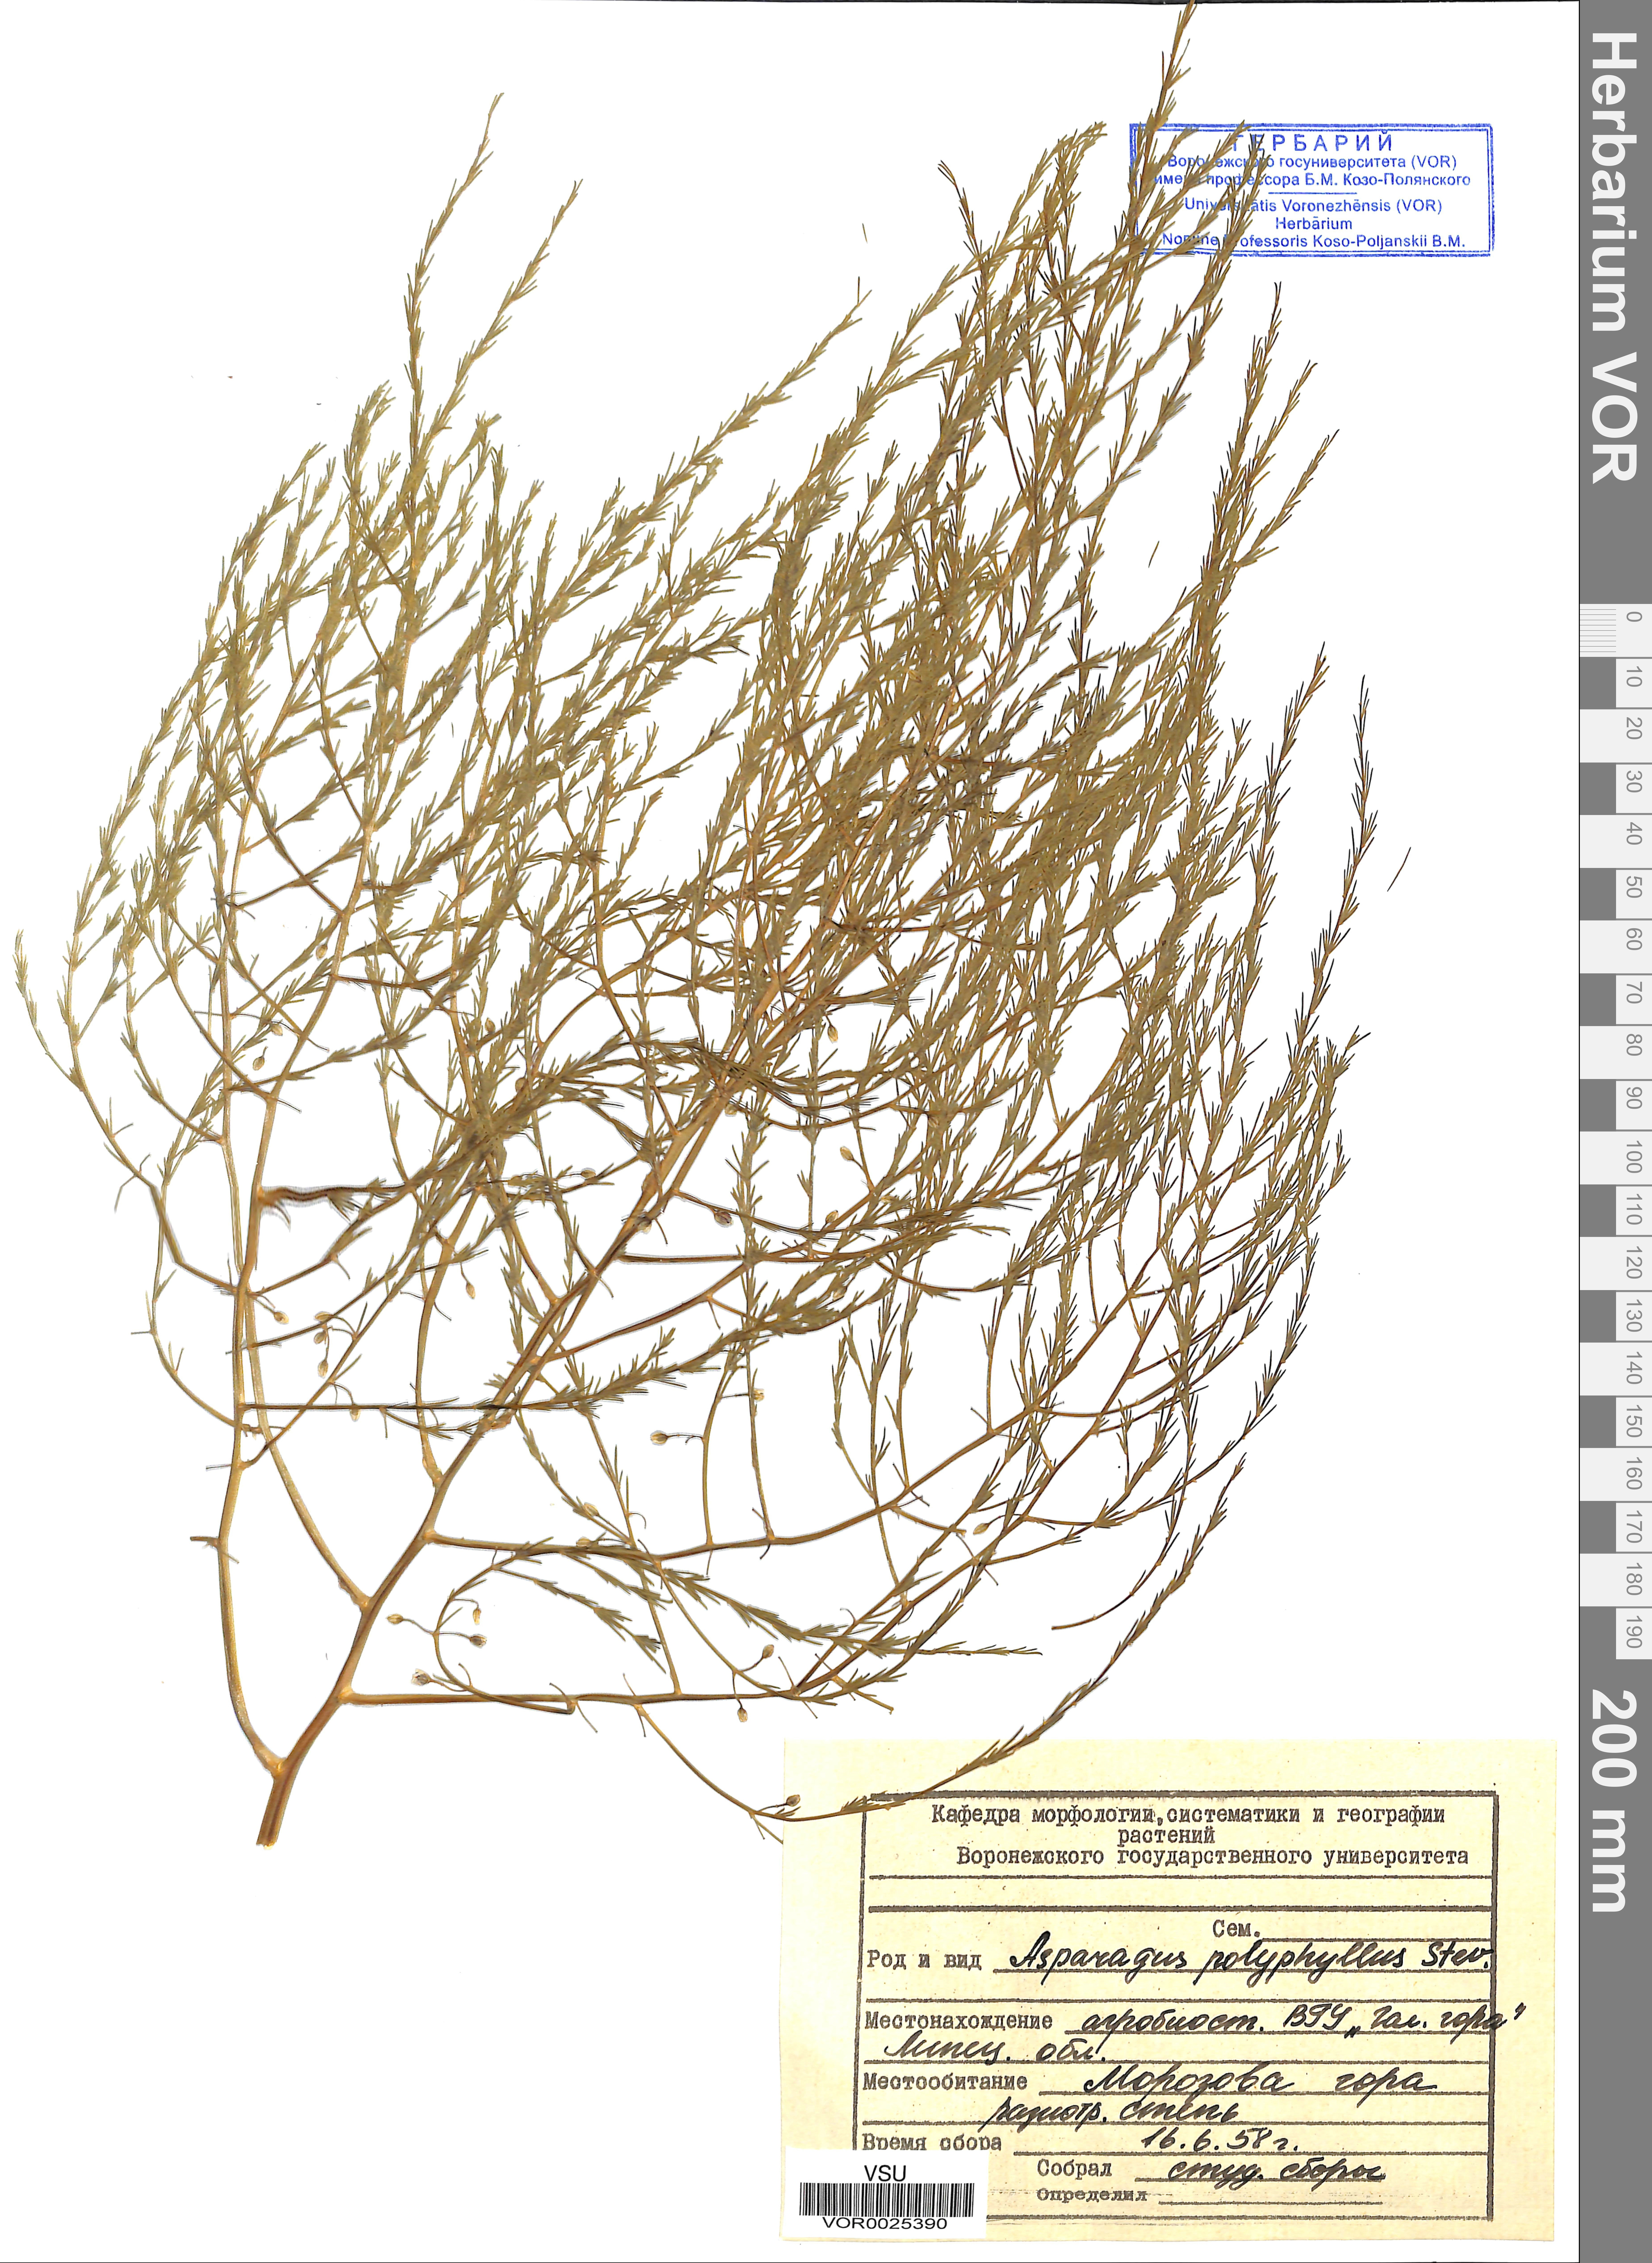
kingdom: Plantae
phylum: Tracheophyta
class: Liliopsida
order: Asparagales
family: Asparagaceae
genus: Asparagus
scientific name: Asparagus officinalis
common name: Garden asparagus
